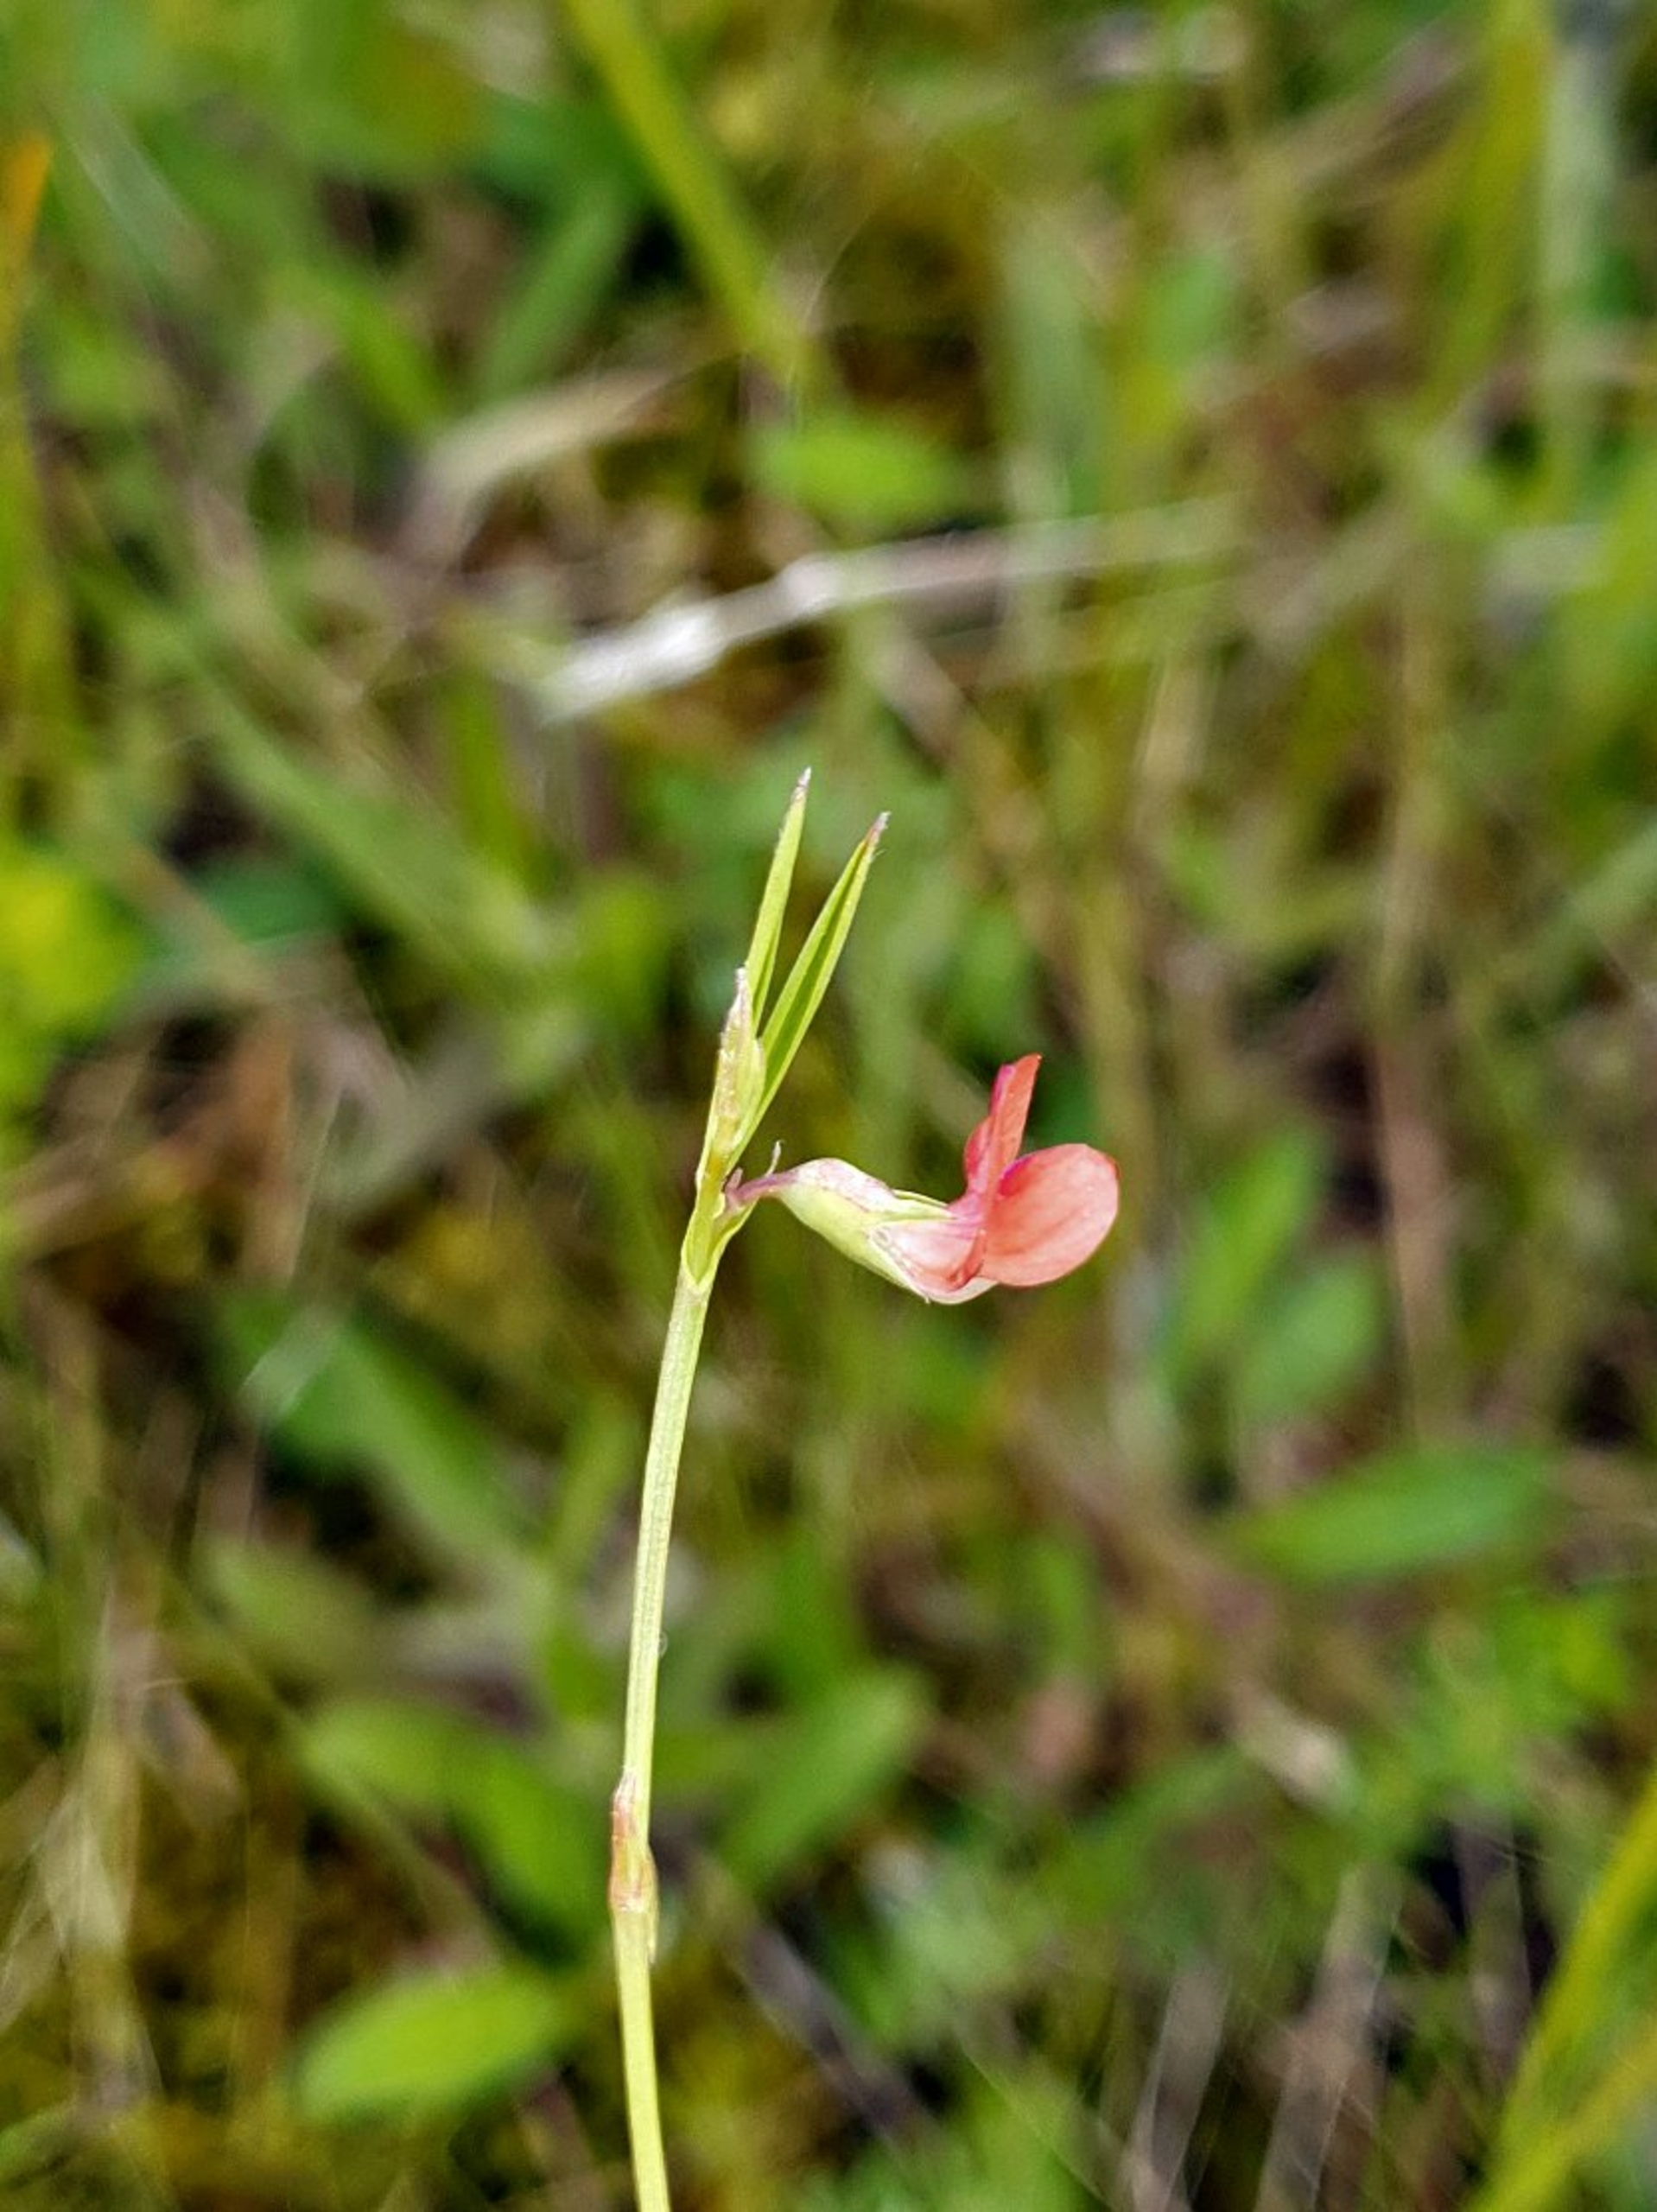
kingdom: Plantae
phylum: Tracheophyta
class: Magnoliopsida
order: Fabales
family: Fabaceae
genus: Lathyrus
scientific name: Lathyrus sphaericus
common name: Enblomstret fladbælg
